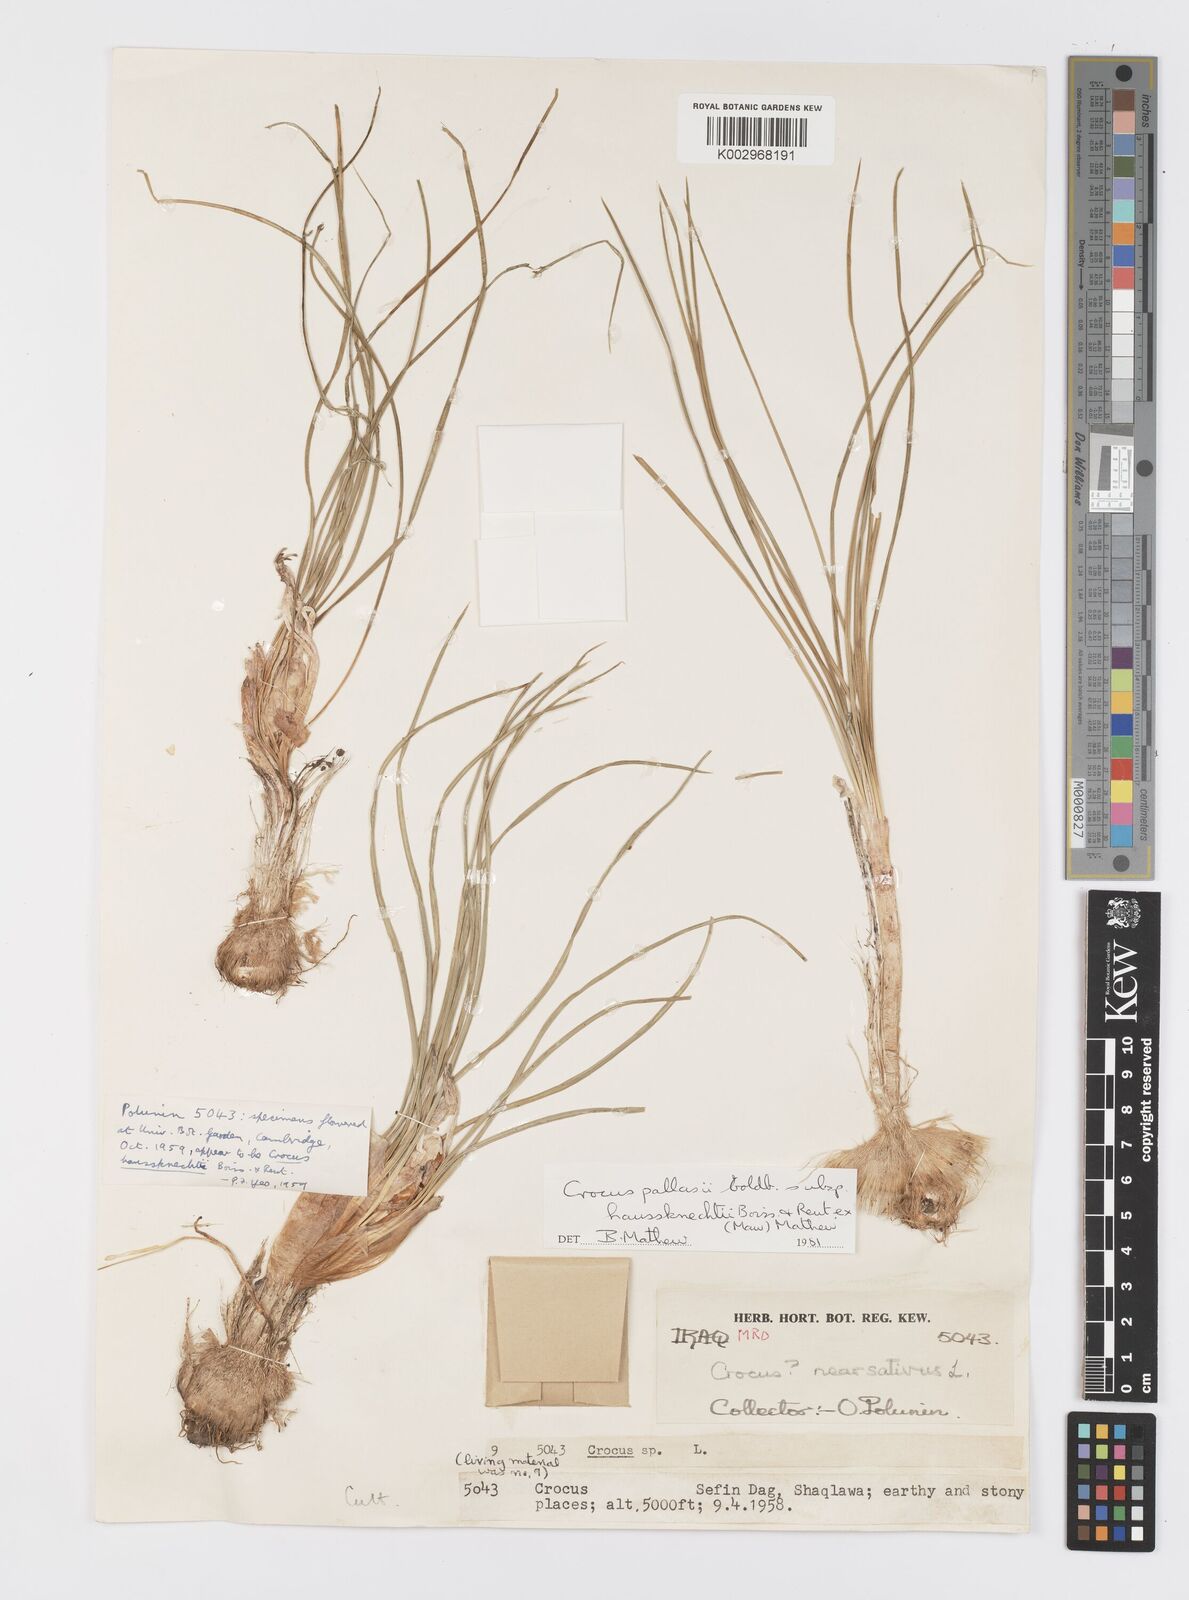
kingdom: Plantae
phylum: Tracheophyta
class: Liliopsida
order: Asparagales
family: Iridaceae
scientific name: Iridaceae
